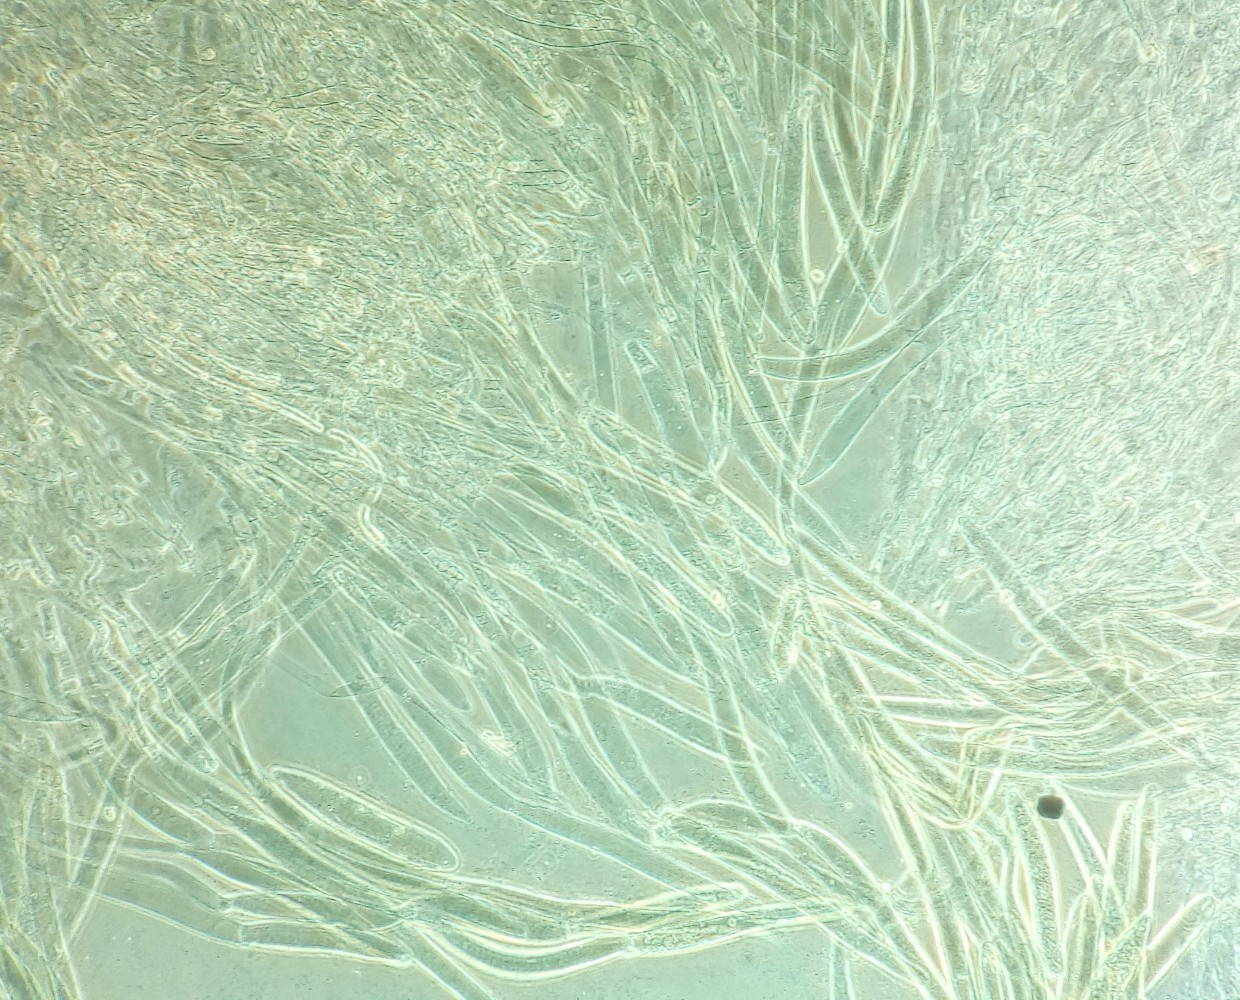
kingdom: Fungi
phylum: Basidiomycota
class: Agaricomycetes
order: Agaricales
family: Pluteaceae
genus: Pluteus
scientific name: Pluteus
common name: gråfibret skærmhat
